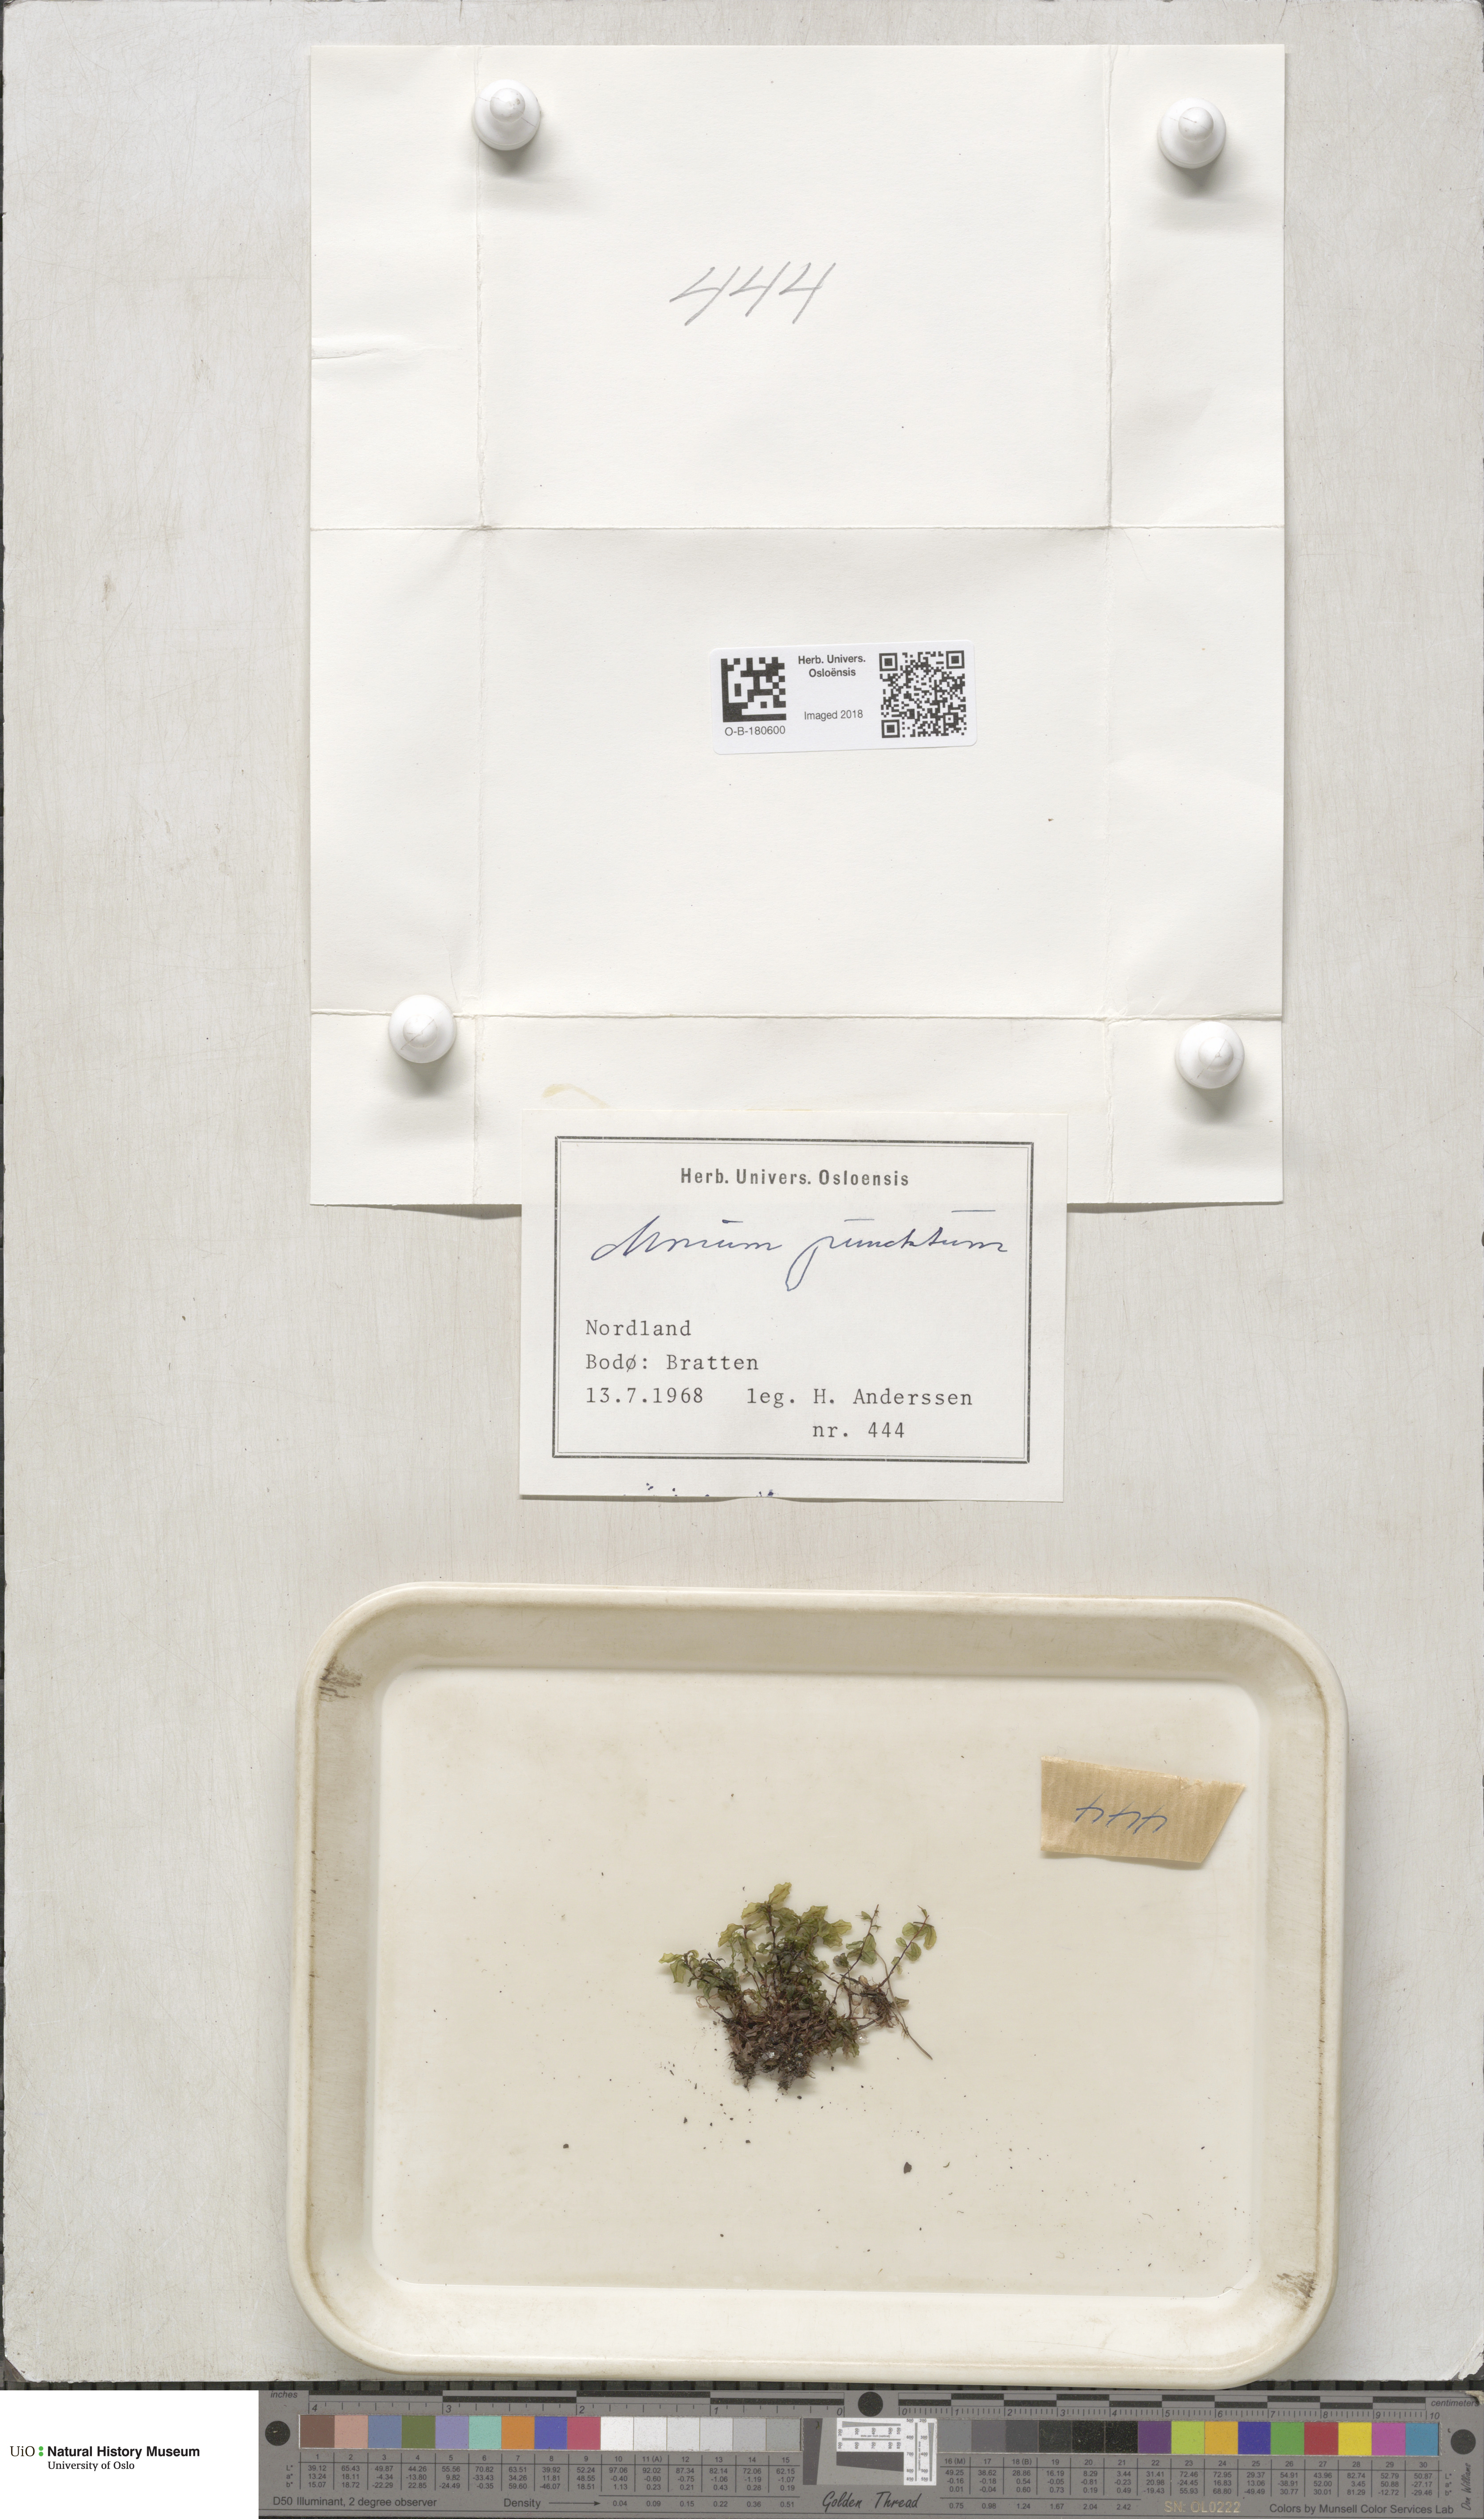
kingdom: Plantae
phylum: Bryophyta
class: Bryopsida
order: Bryales
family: Mniaceae
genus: Rhizomnium
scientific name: Rhizomnium punctatum
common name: Dotted leafy moss
